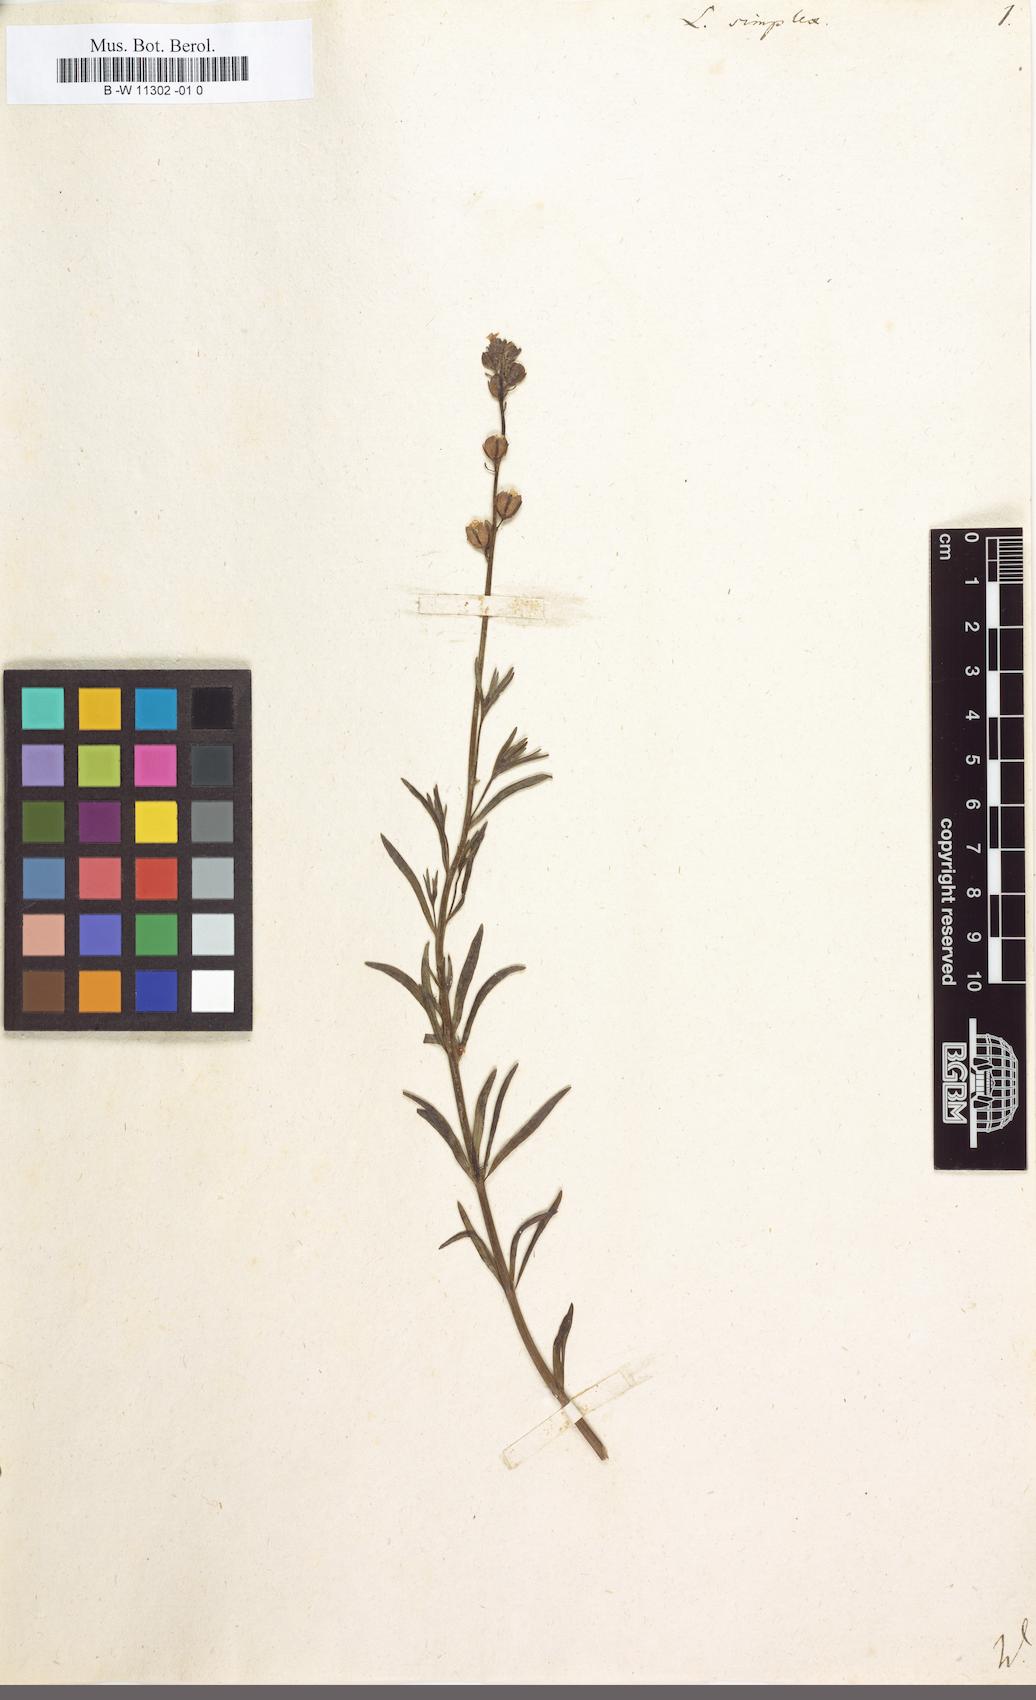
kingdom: Plantae
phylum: Tracheophyta
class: Magnoliopsida
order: Lamiales
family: Plantaginaceae
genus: Linaria
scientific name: Linaria simplex
